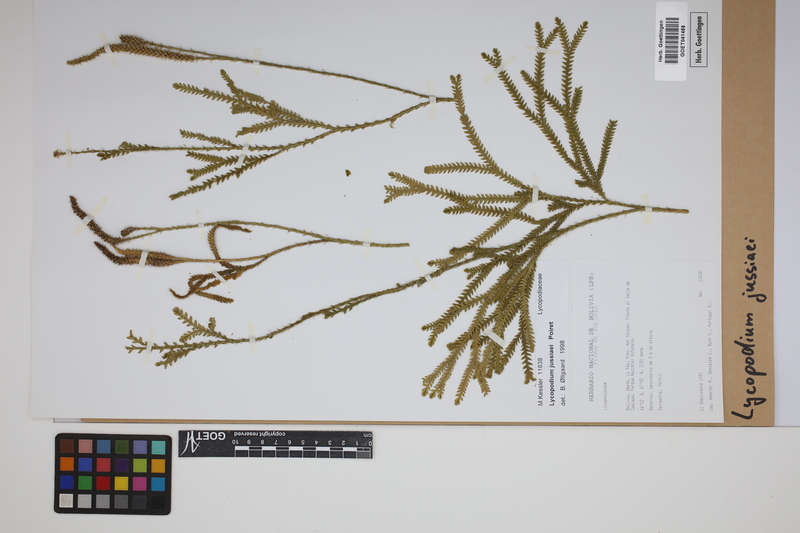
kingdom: Plantae
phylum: Tracheophyta
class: Lycopodiopsida
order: Lycopodiales
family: Lycopodiaceae
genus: Diphasium
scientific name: Diphasium jussiaei
